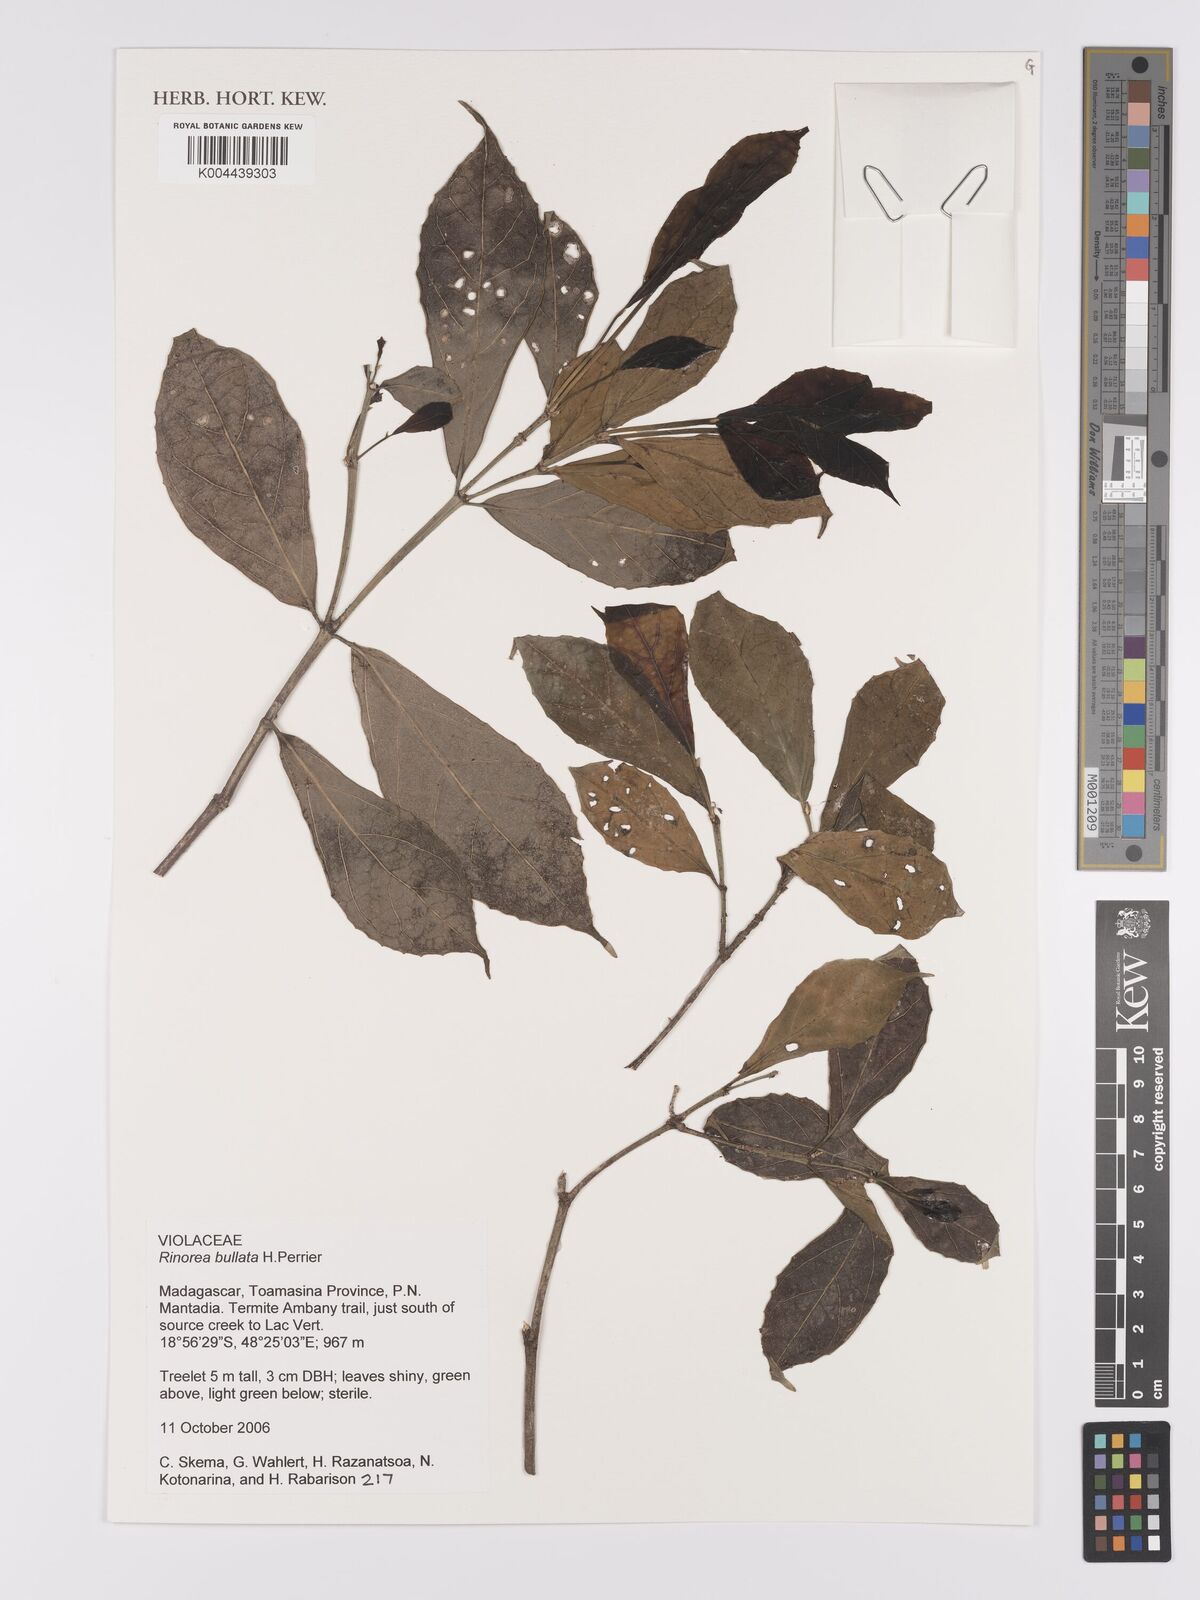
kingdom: Plantae
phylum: Tracheophyta
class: Magnoliopsida
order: Malpighiales
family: Violaceae
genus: Rinorea
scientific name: Rinorea bullata
